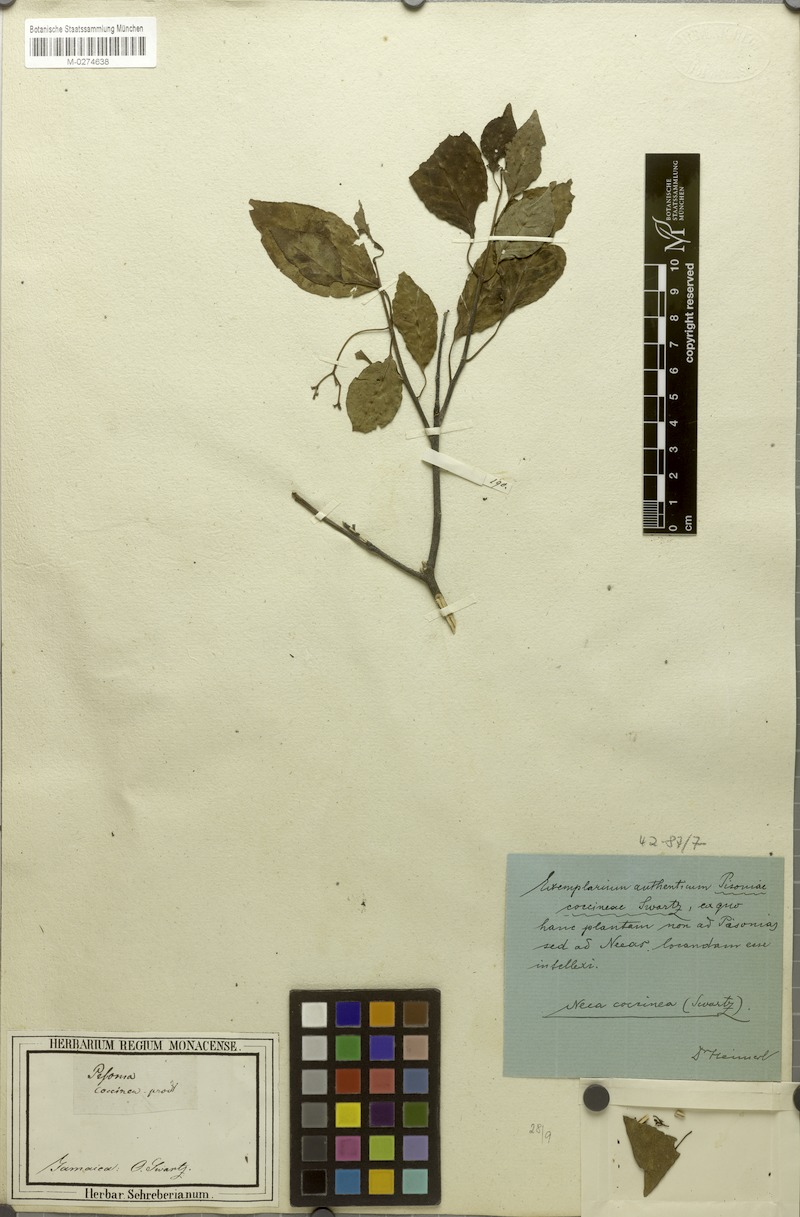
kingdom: Plantae
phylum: Tracheophyta
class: Magnoliopsida
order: Caryophyllales
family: Nyctaginaceae
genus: Neea
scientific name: Neea coccinea
